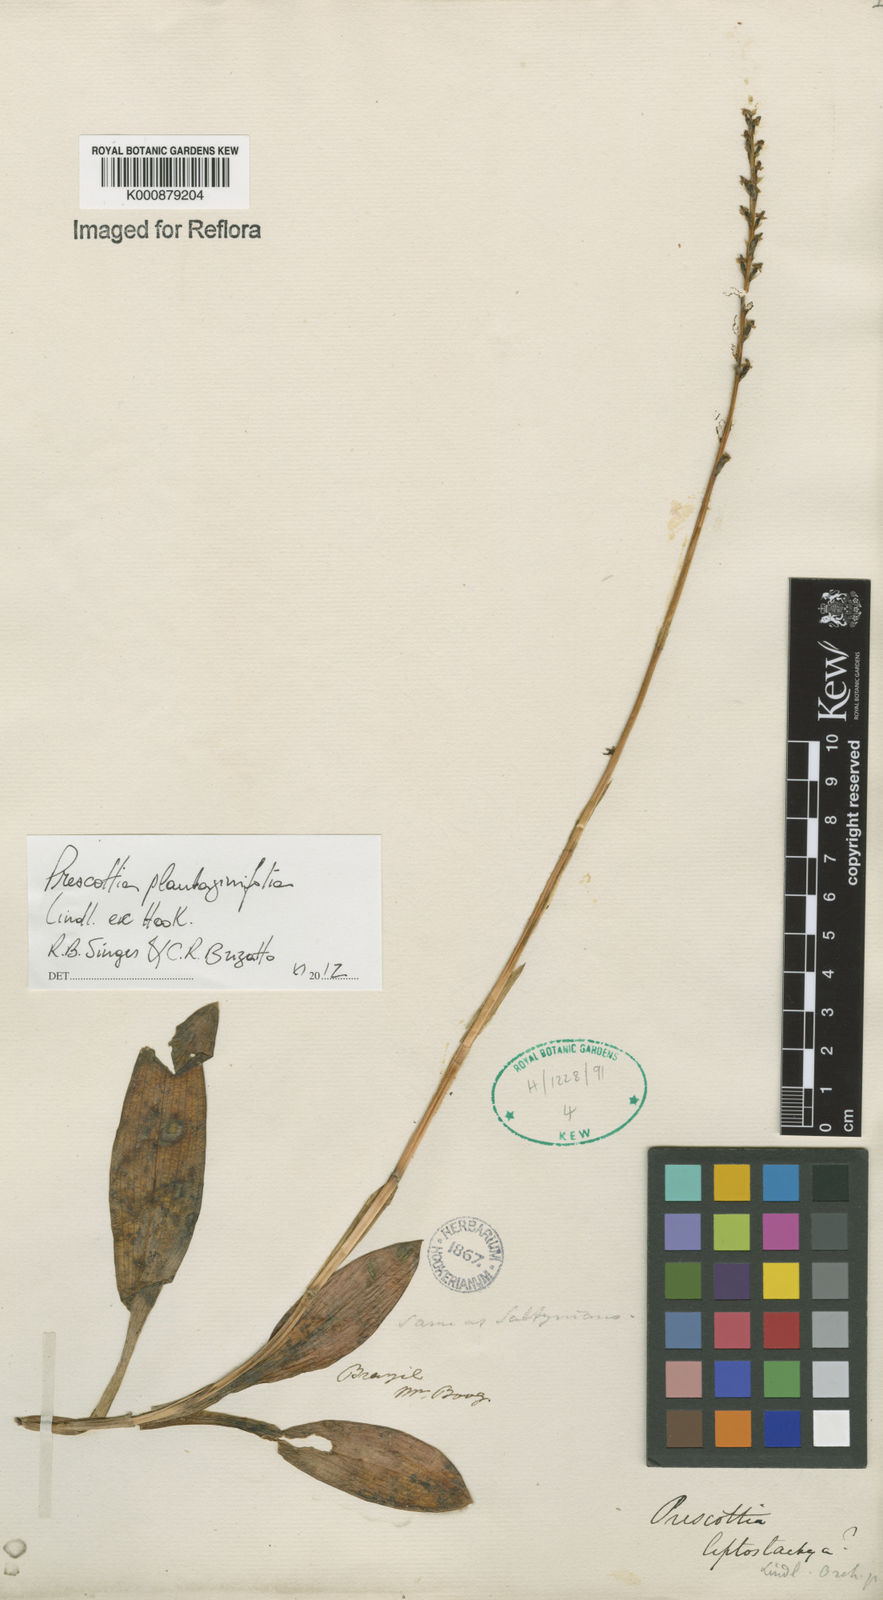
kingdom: Plantae
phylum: Tracheophyta
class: Liliopsida
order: Asparagales
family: Orchidaceae
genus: Prescottia
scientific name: Prescottia plantaginifolia
